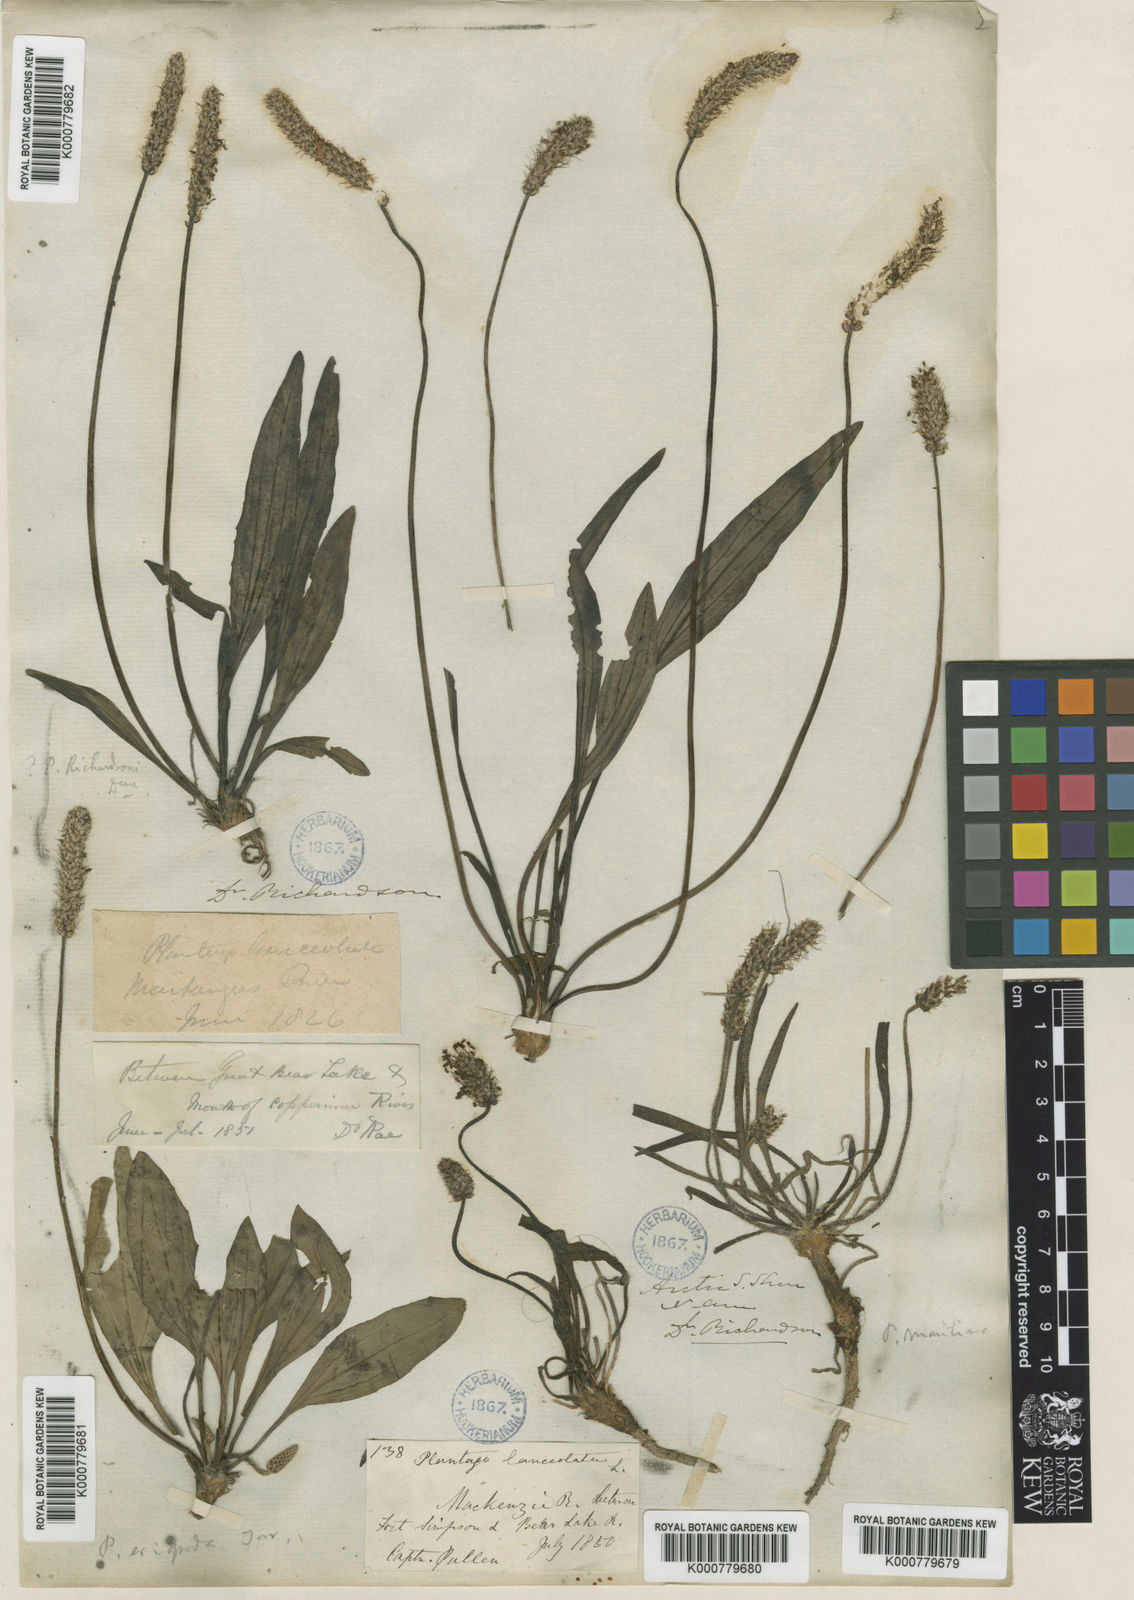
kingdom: Plantae
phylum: Tracheophyta
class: Magnoliopsida
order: Lamiales
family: Plantaginaceae
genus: Plantago
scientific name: Plantago canescens
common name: Siberian plantain
